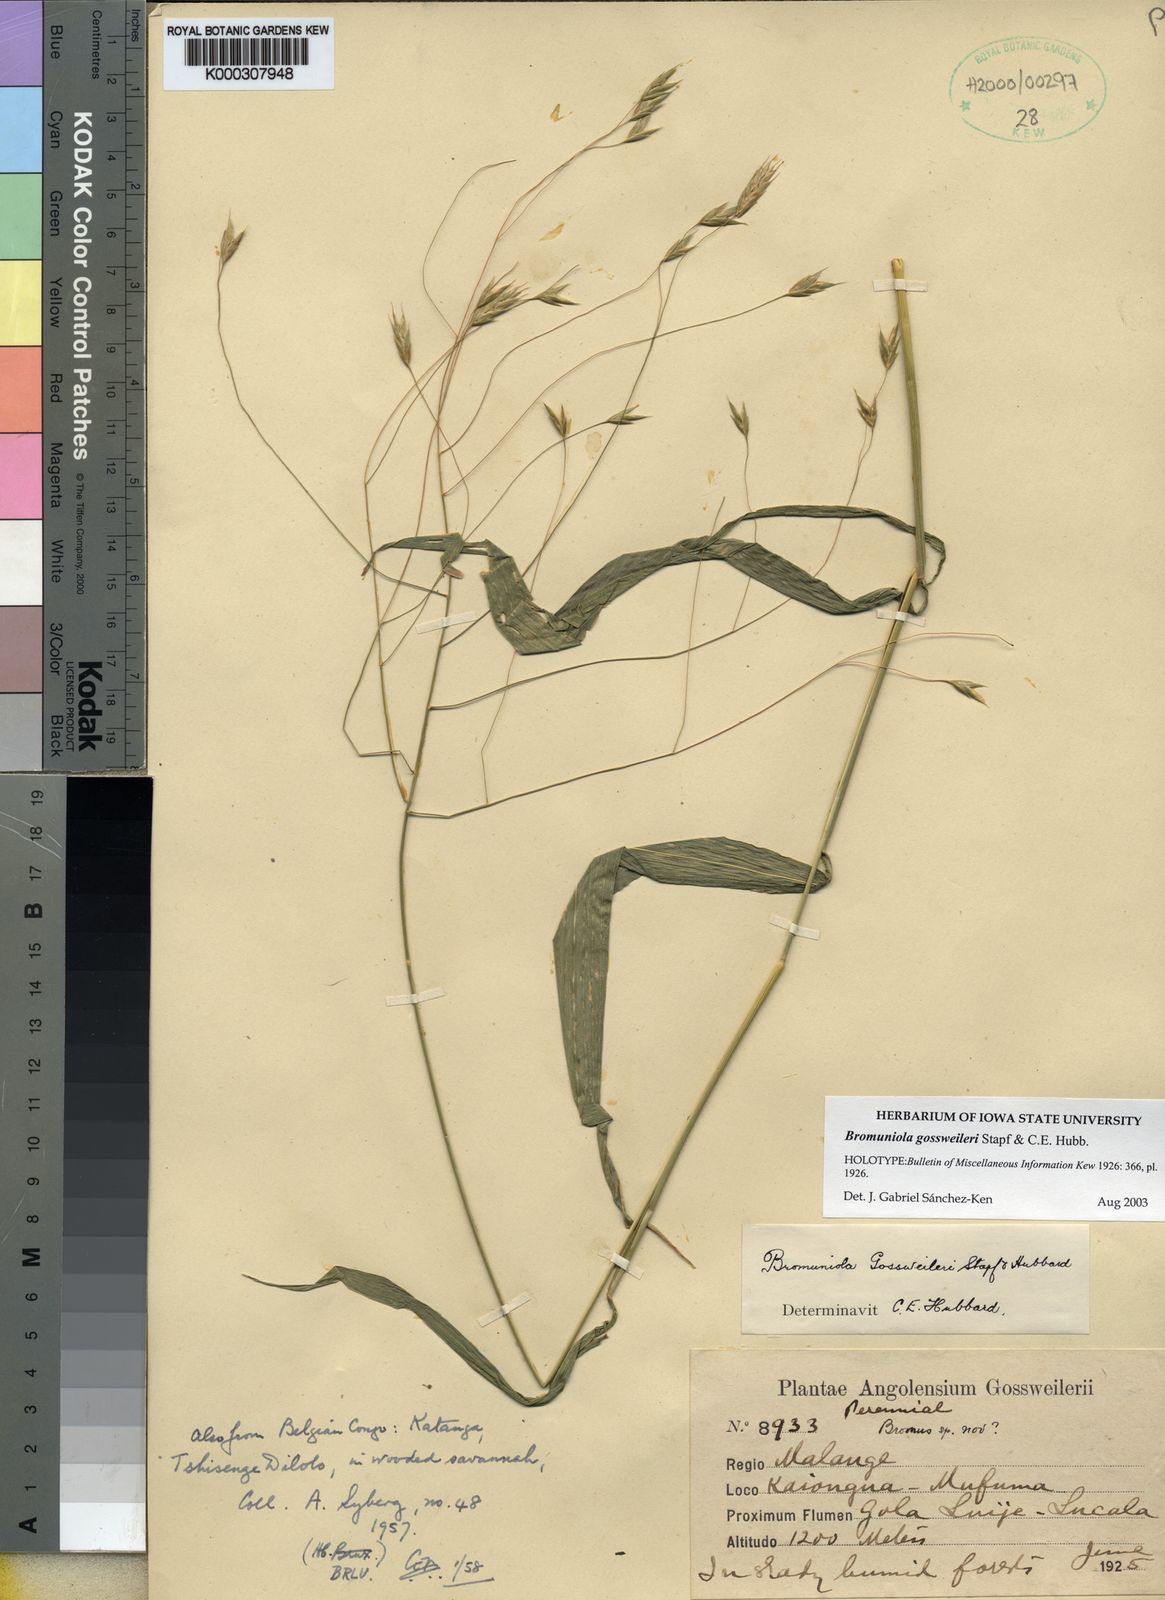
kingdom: Plantae
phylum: Tracheophyta
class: Liliopsida
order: Poales
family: Poaceae
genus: Bromuniola
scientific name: Bromuniola gossweileri
